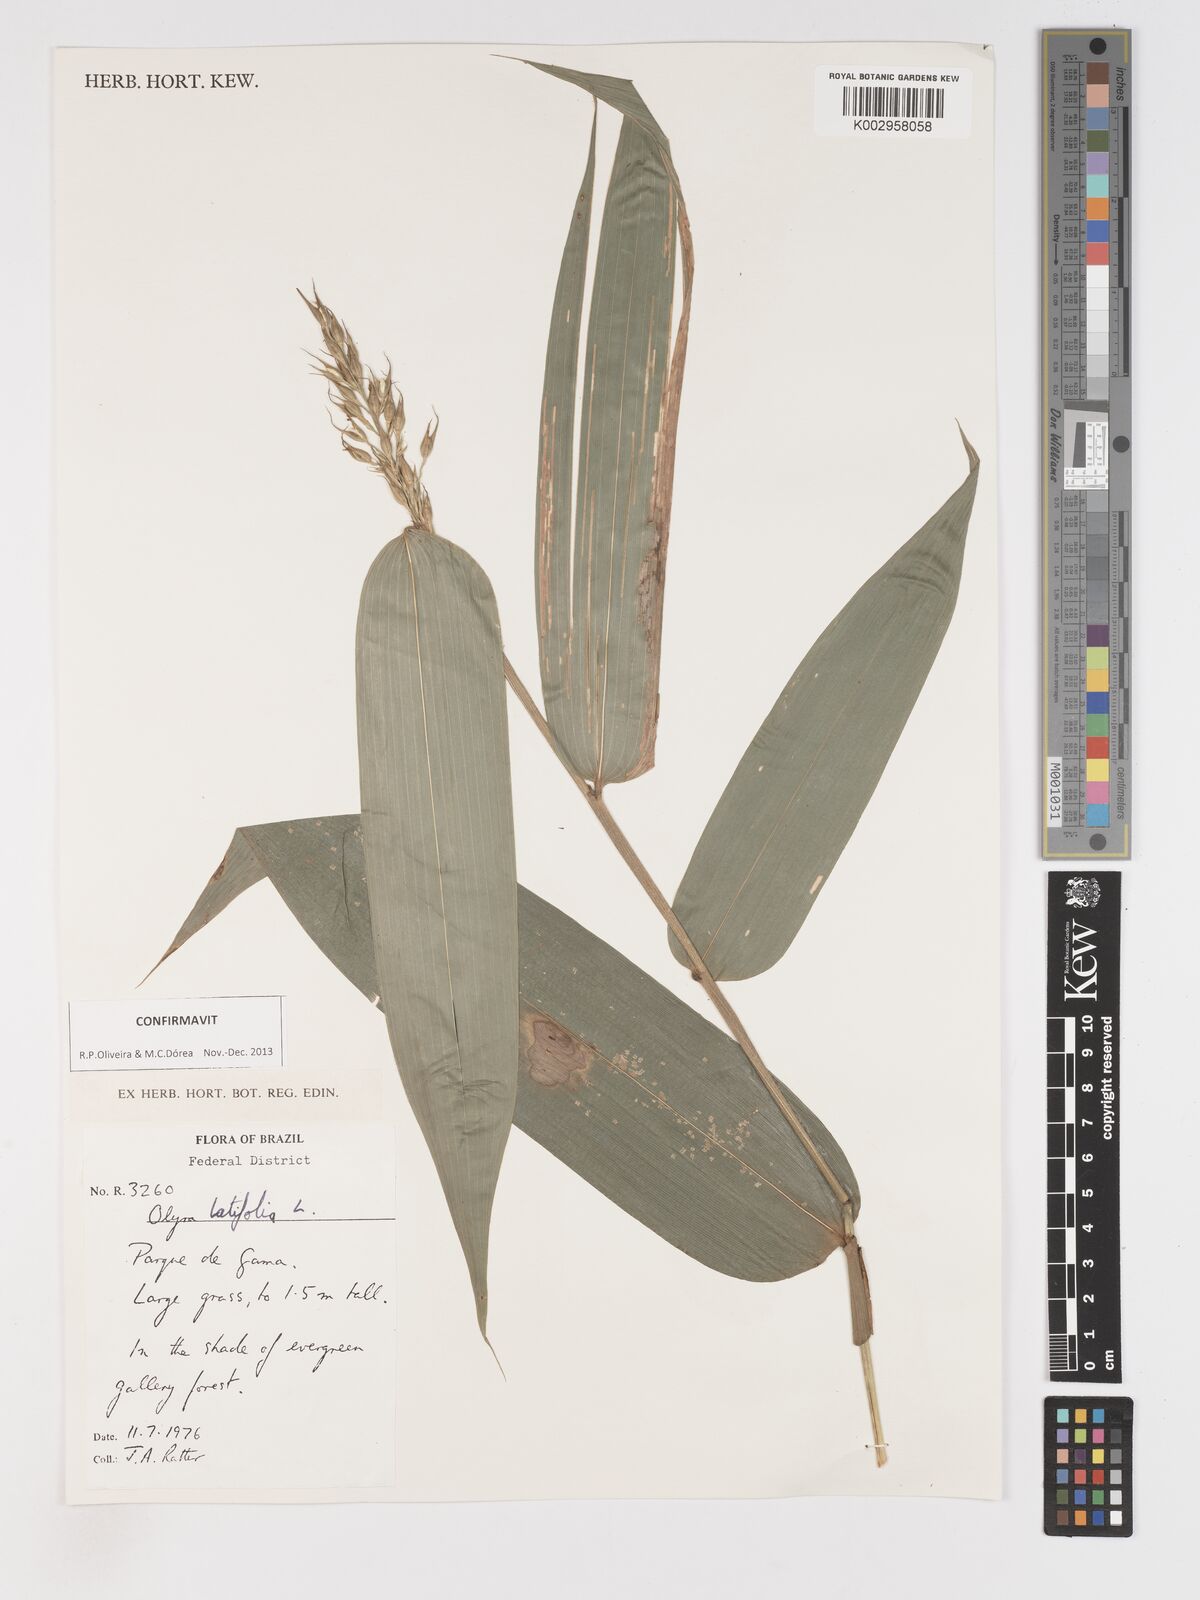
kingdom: Plantae
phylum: Tracheophyta
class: Liliopsida
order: Poales
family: Poaceae
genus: Olyra
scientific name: Olyra latifolia
